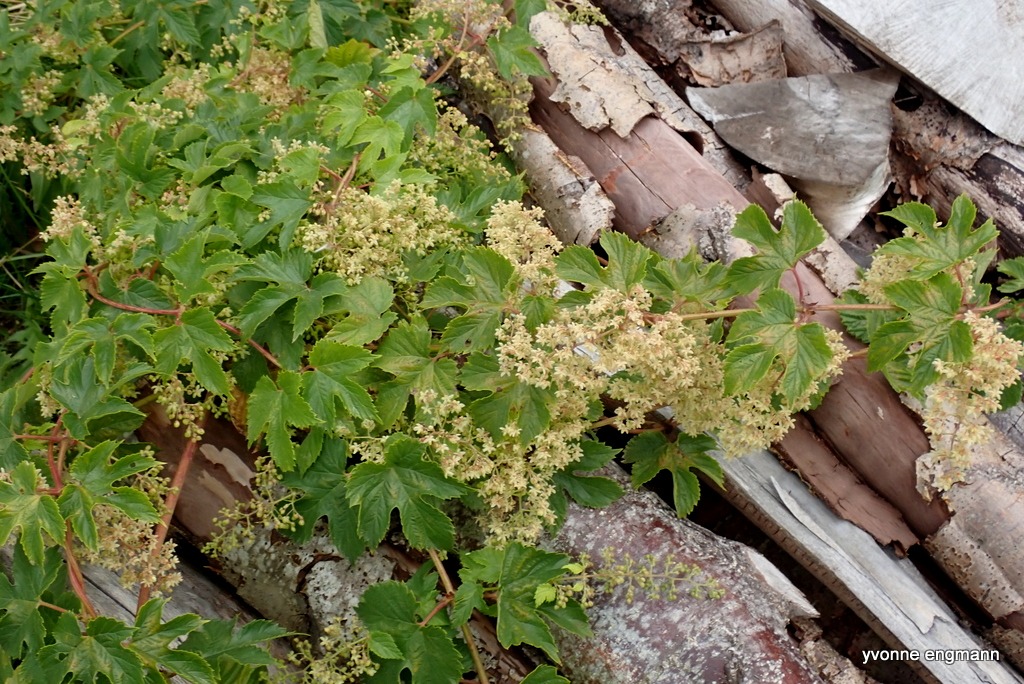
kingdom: Plantae
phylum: Tracheophyta
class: Magnoliopsida
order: Rosales
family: Cannabaceae
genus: Humulus
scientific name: Humulus lupulus
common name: Humle
